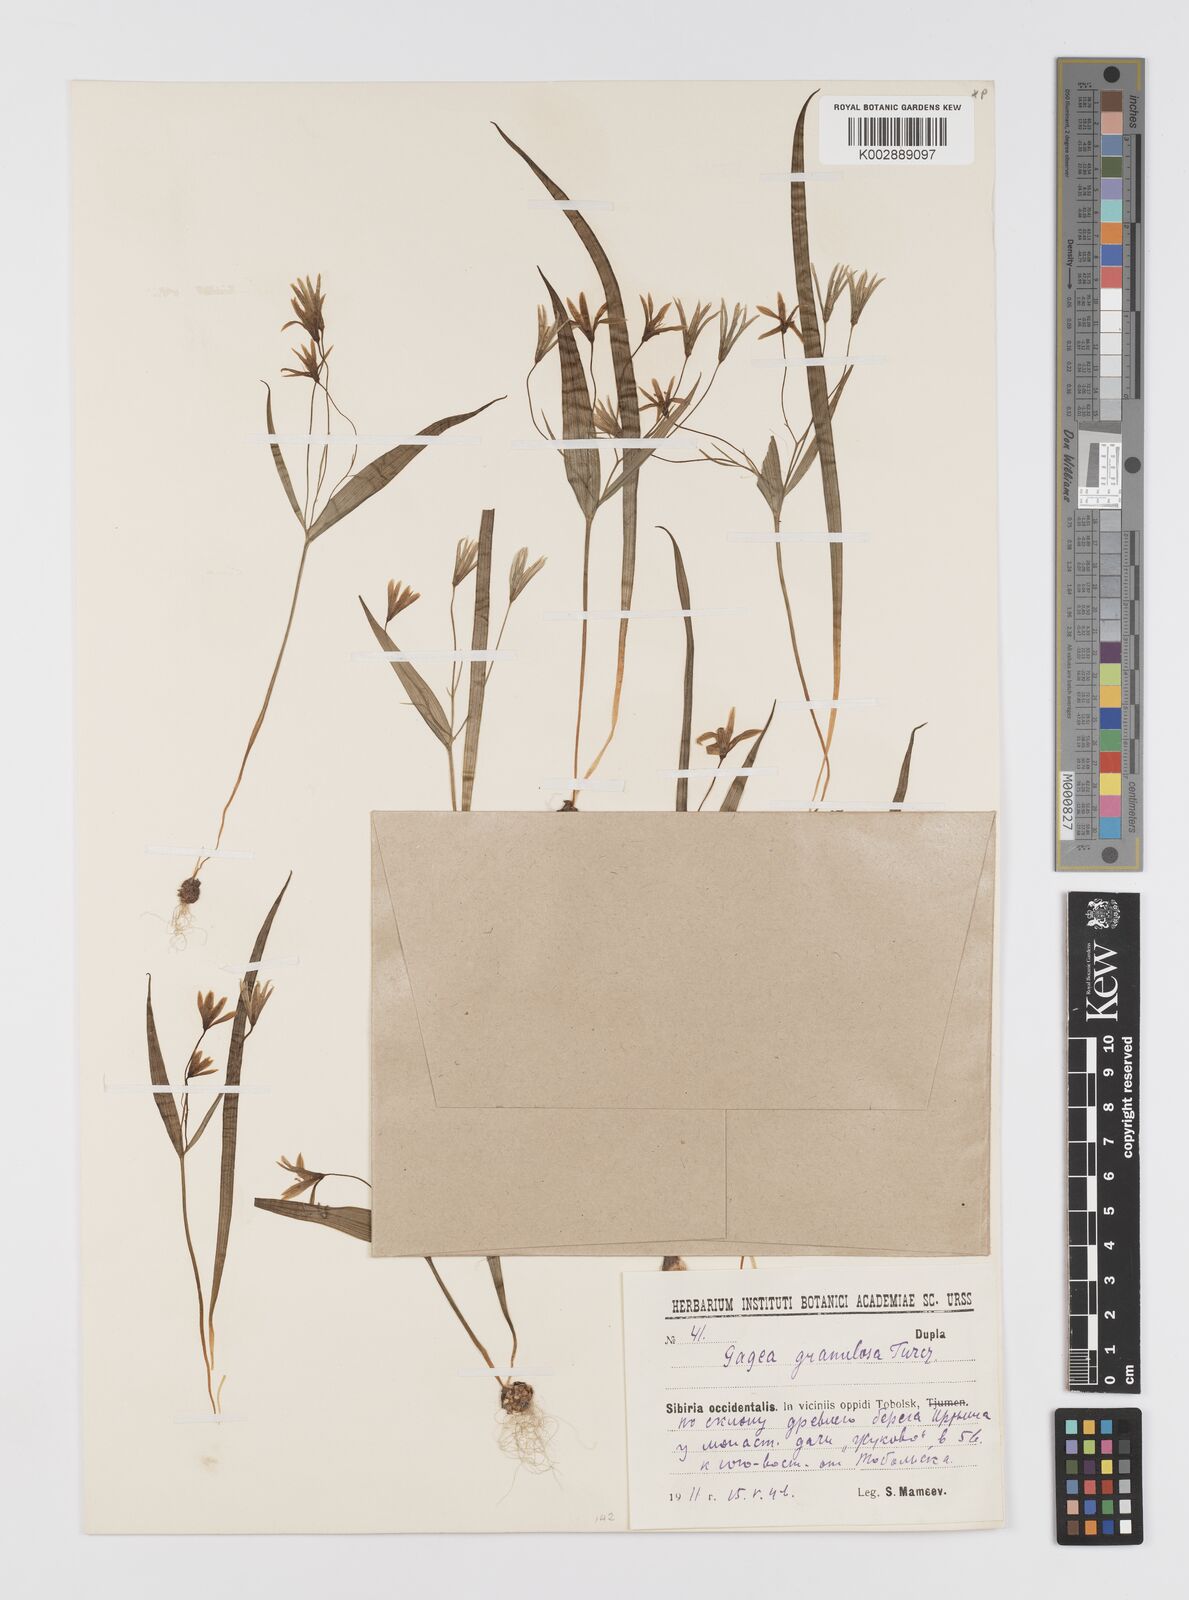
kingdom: Plantae
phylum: Tracheophyta
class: Liliopsida
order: Liliales
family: Liliaceae
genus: Gagea
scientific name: Gagea granulosa
